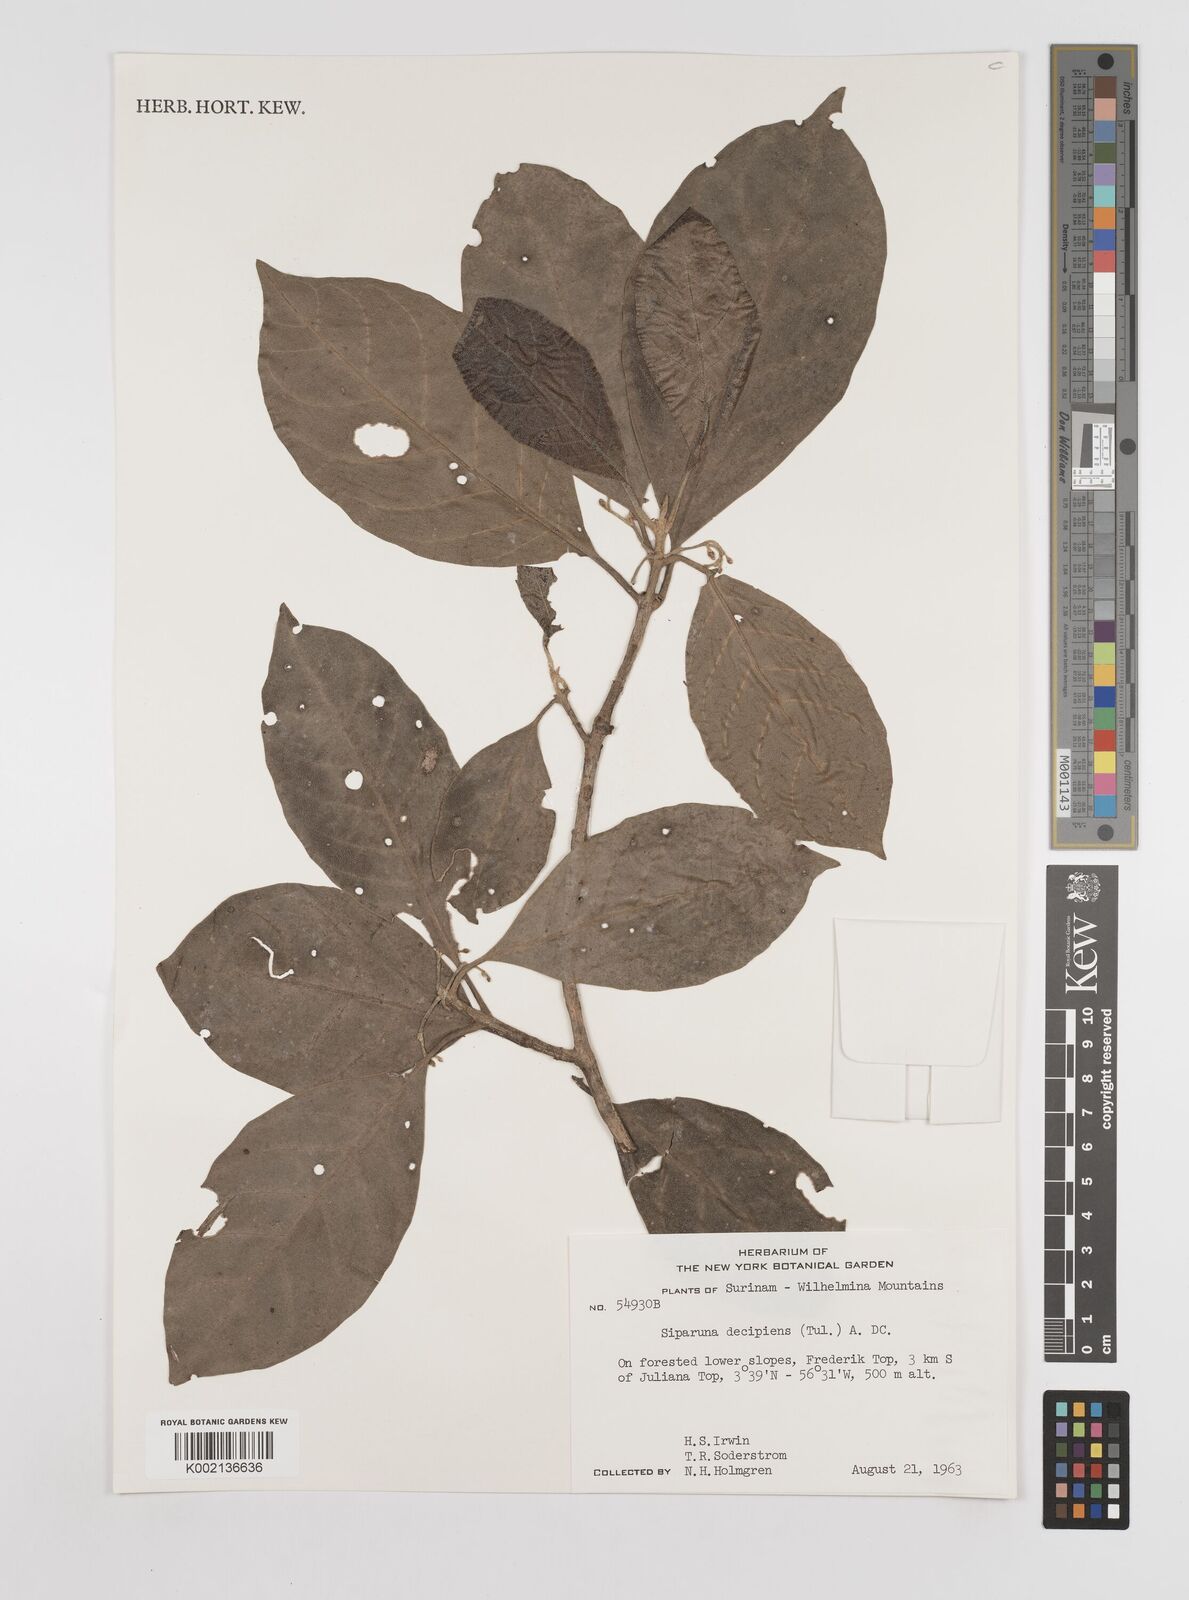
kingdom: Plantae
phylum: Tracheophyta
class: Magnoliopsida
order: Laurales
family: Siparunaceae
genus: Siparuna
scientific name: Siparuna decipiens
